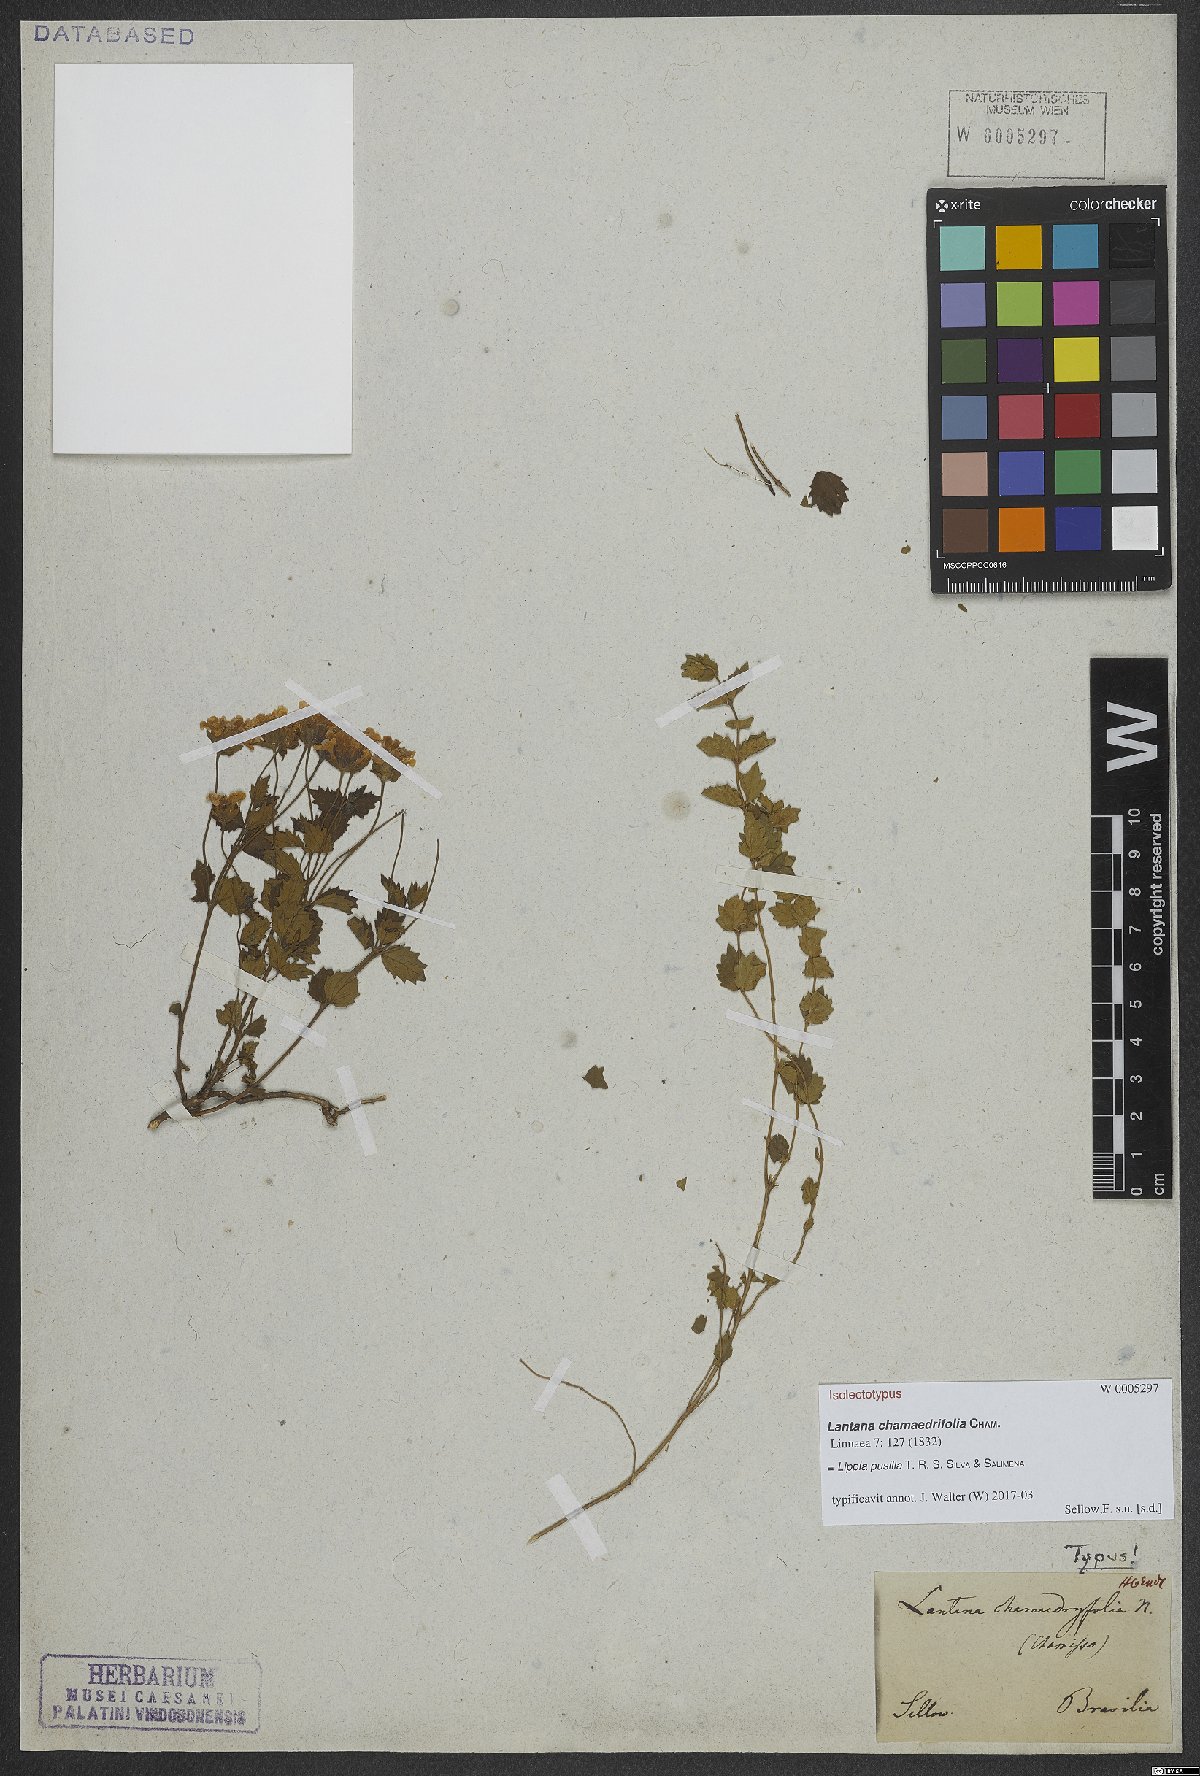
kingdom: Plantae
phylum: Tracheophyta
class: Magnoliopsida
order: Lamiales
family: Verbenaceae
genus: Lippia
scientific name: Lippia pusilla
